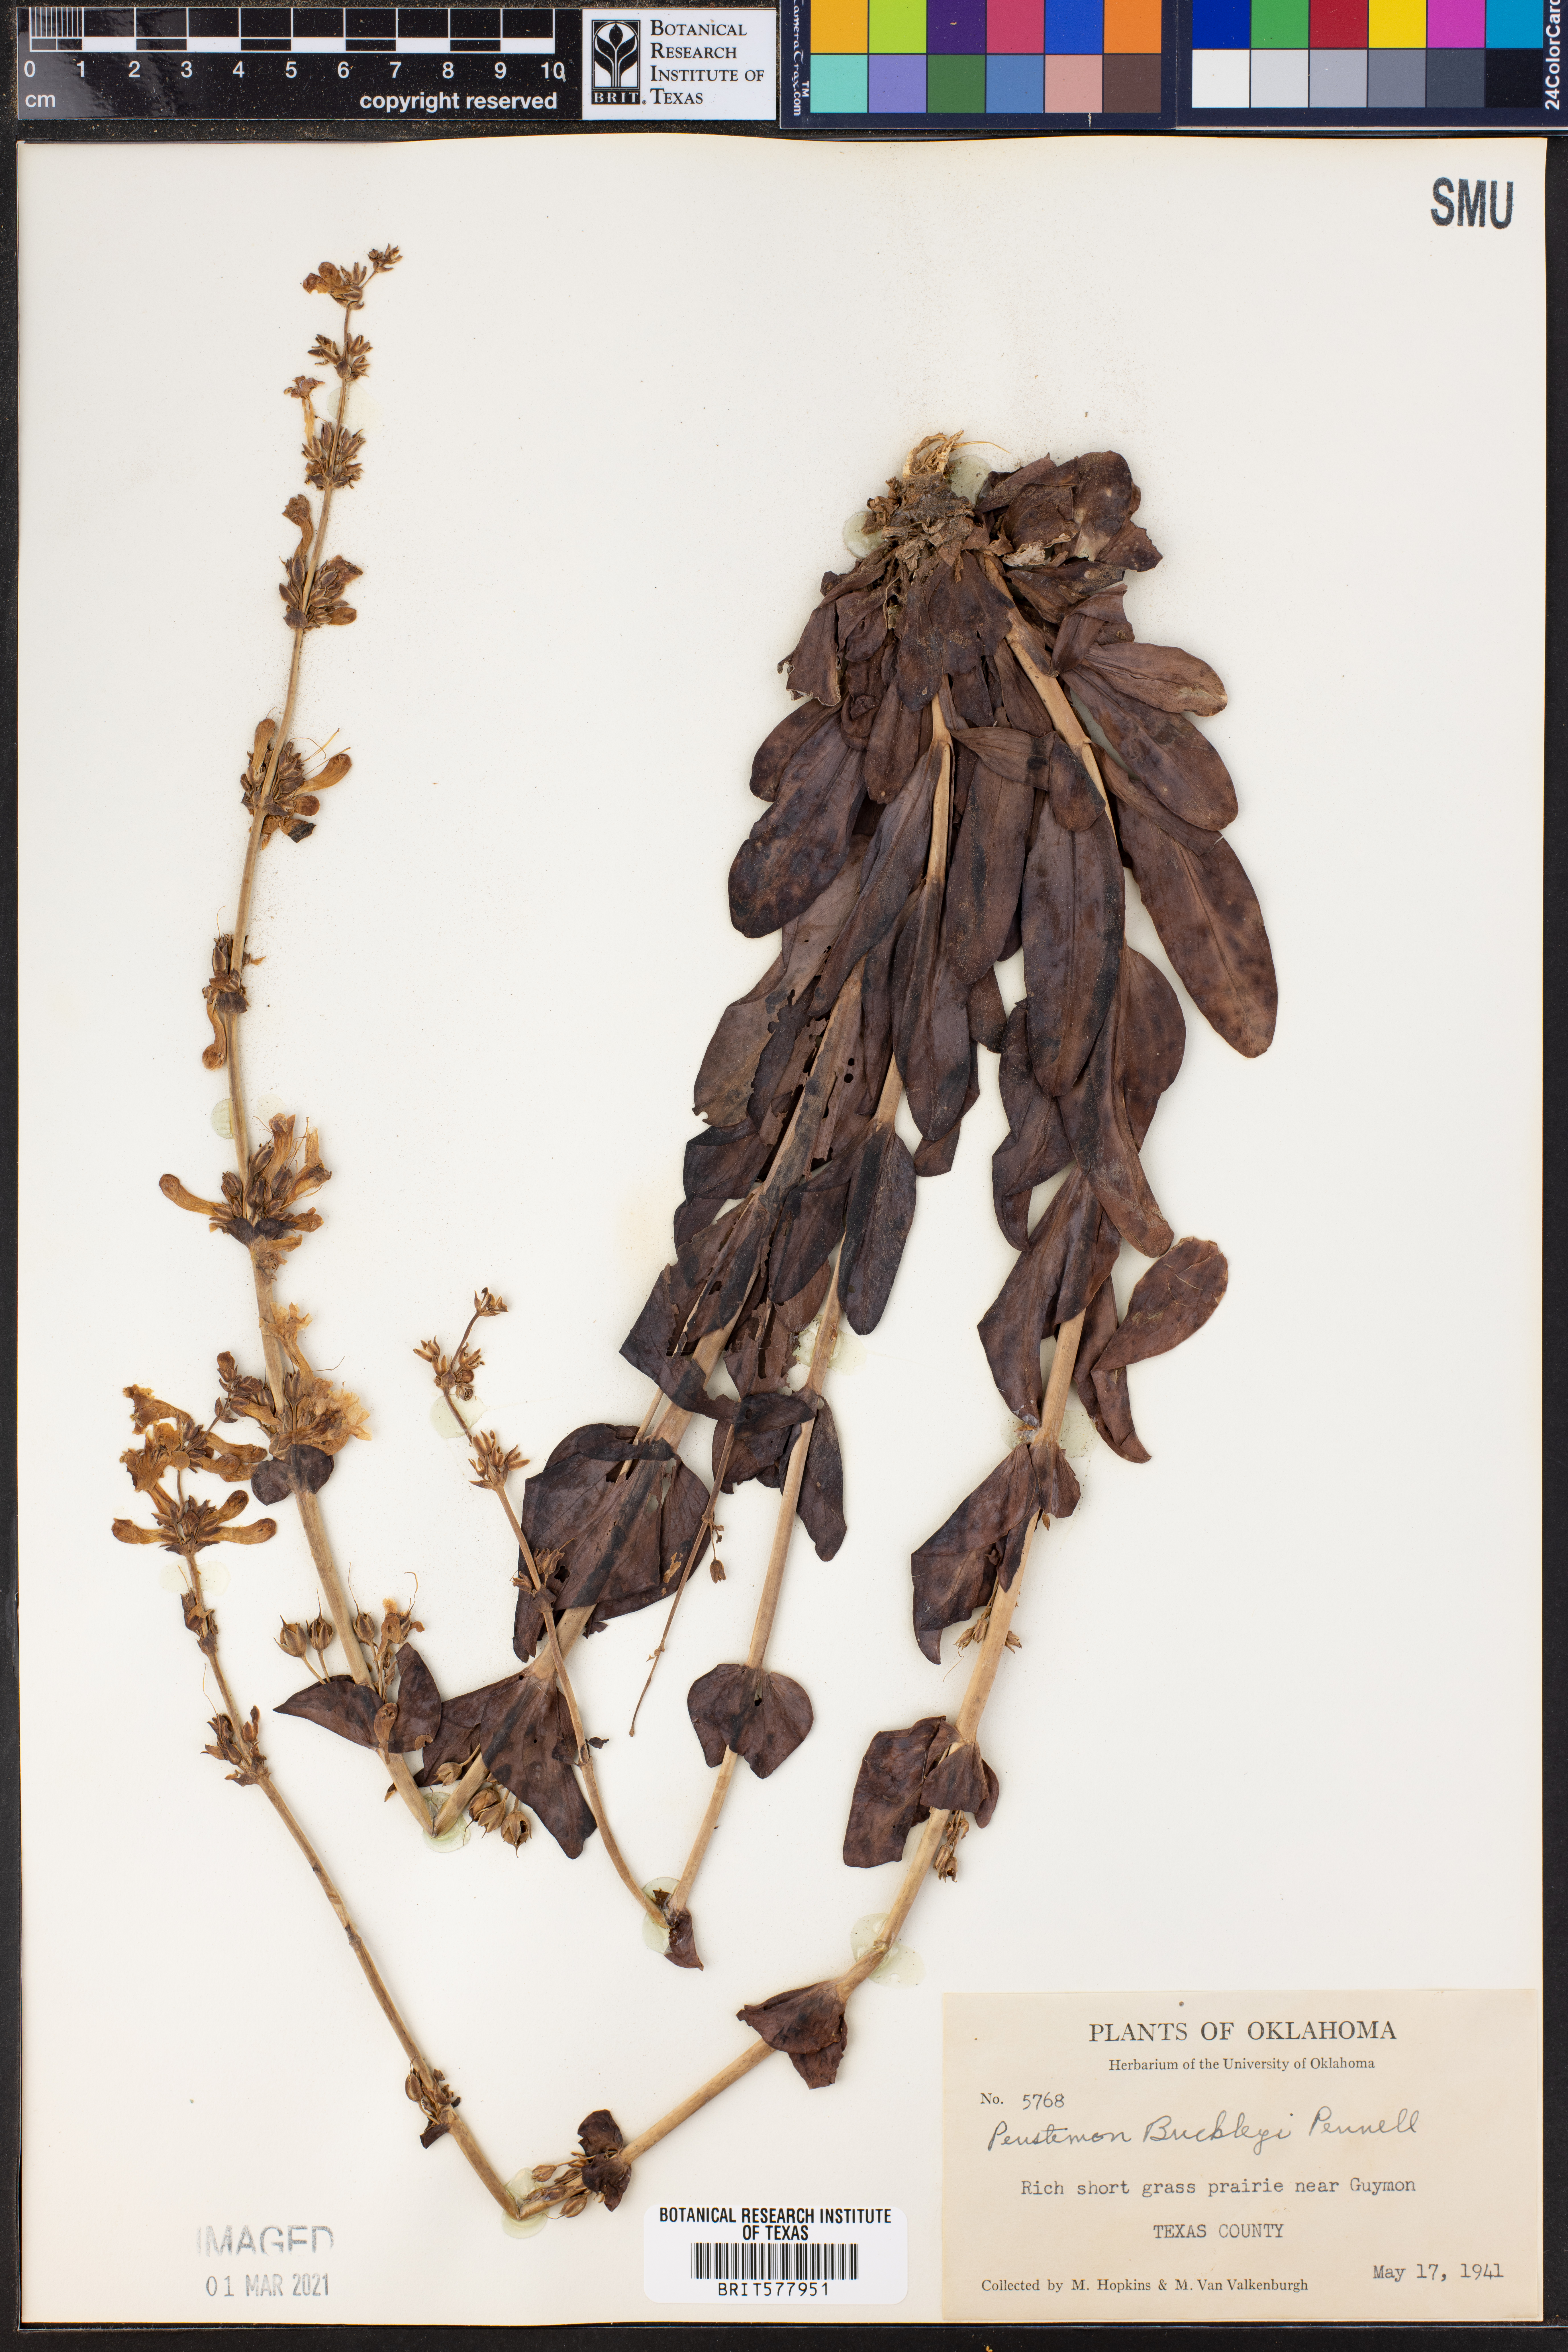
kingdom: Plantae
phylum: Tracheophyta
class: Magnoliopsida
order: Lamiales
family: Plantaginaceae
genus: Penstemon
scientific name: Penstemon buckleyi
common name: Buckley's penstemon
